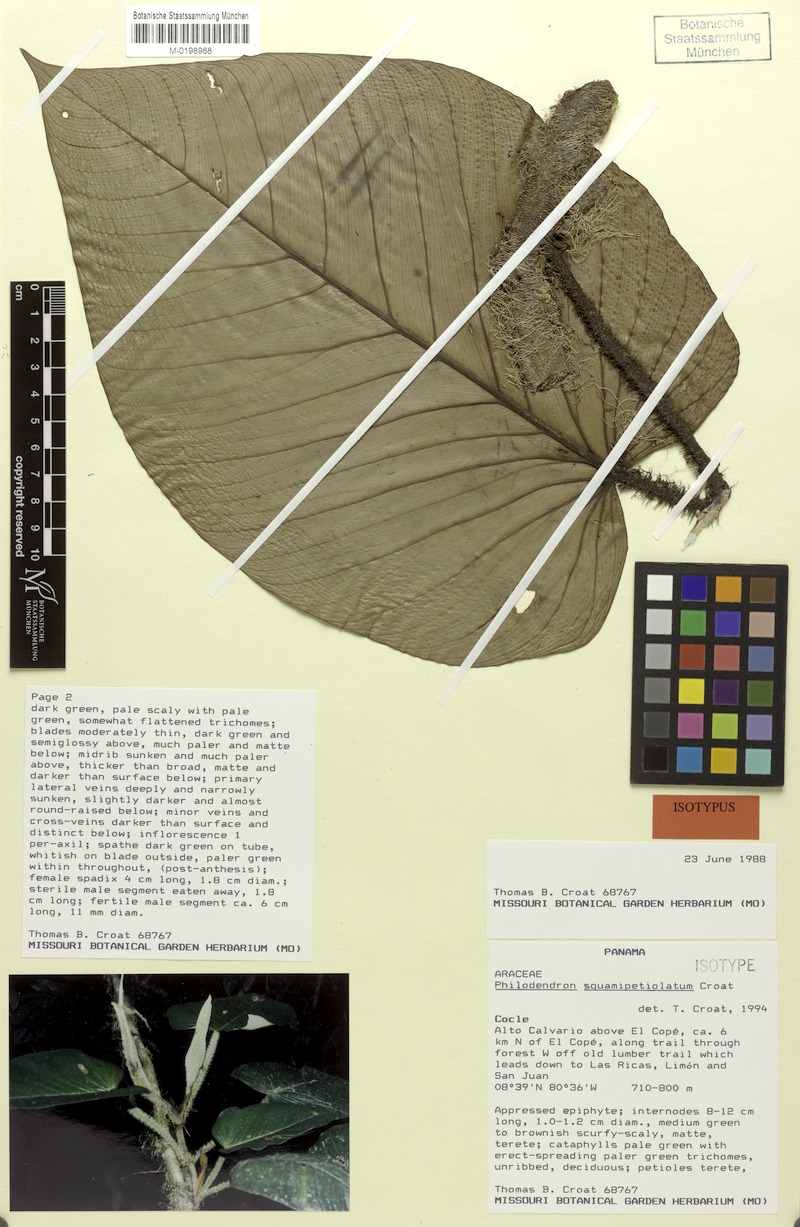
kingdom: Plantae
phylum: Tracheophyta
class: Liliopsida
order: Alismatales
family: Araceae
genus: Philodendron
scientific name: Philodendron squamipetiolatum
